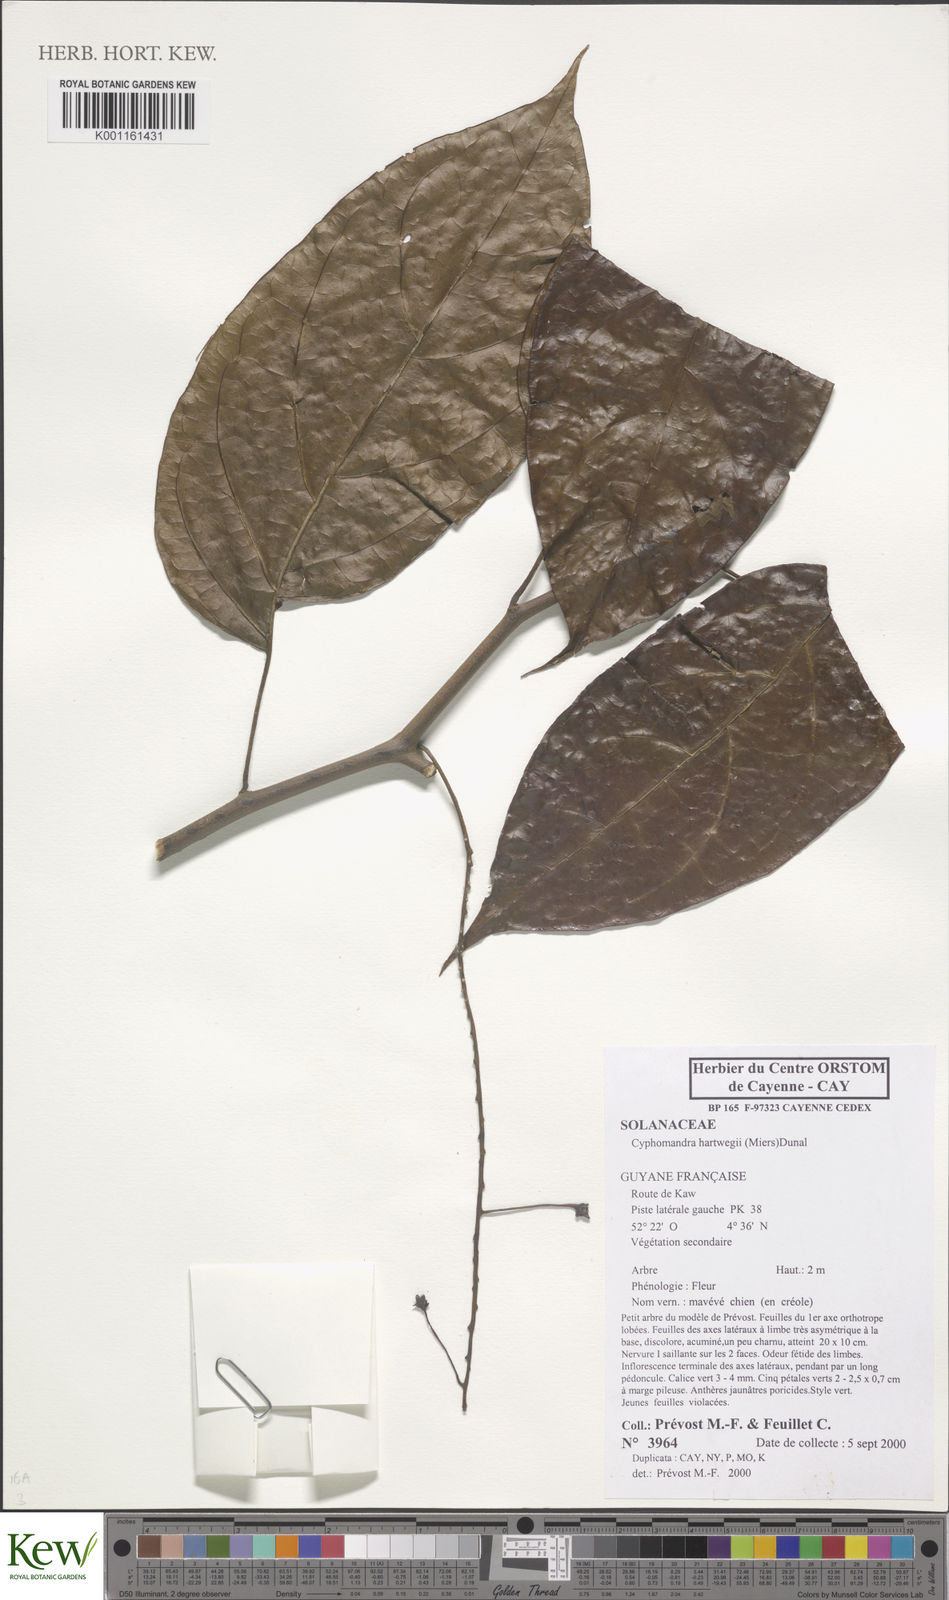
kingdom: Plantae
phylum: Tracheophyta
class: Magnoliopsida
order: Solanales
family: Solanaceae
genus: Solanum
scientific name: Solanum splendens
